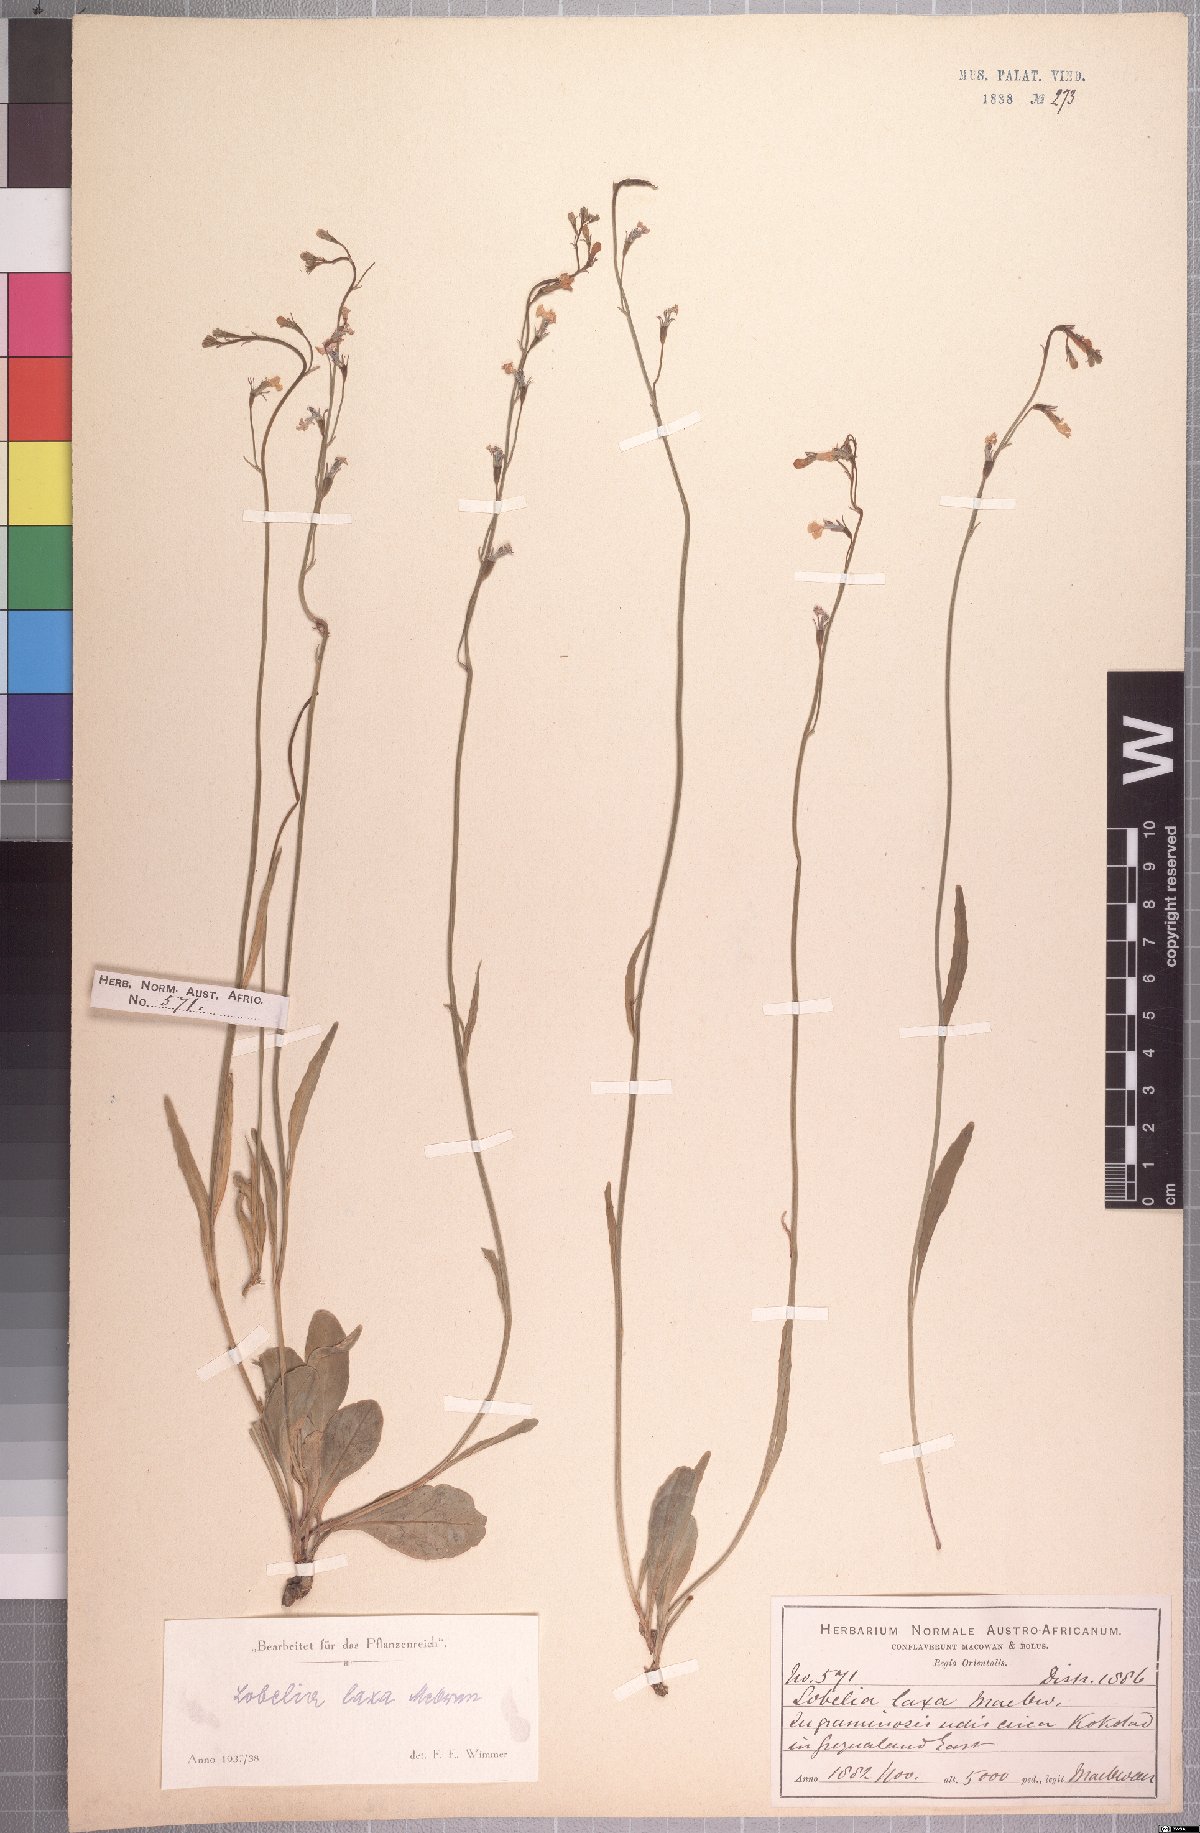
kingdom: Plantae
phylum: Tracheophyta
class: Magnoliopsida
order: Asterales
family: Campanulaceae
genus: Lobelia
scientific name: Lobelia laxa
